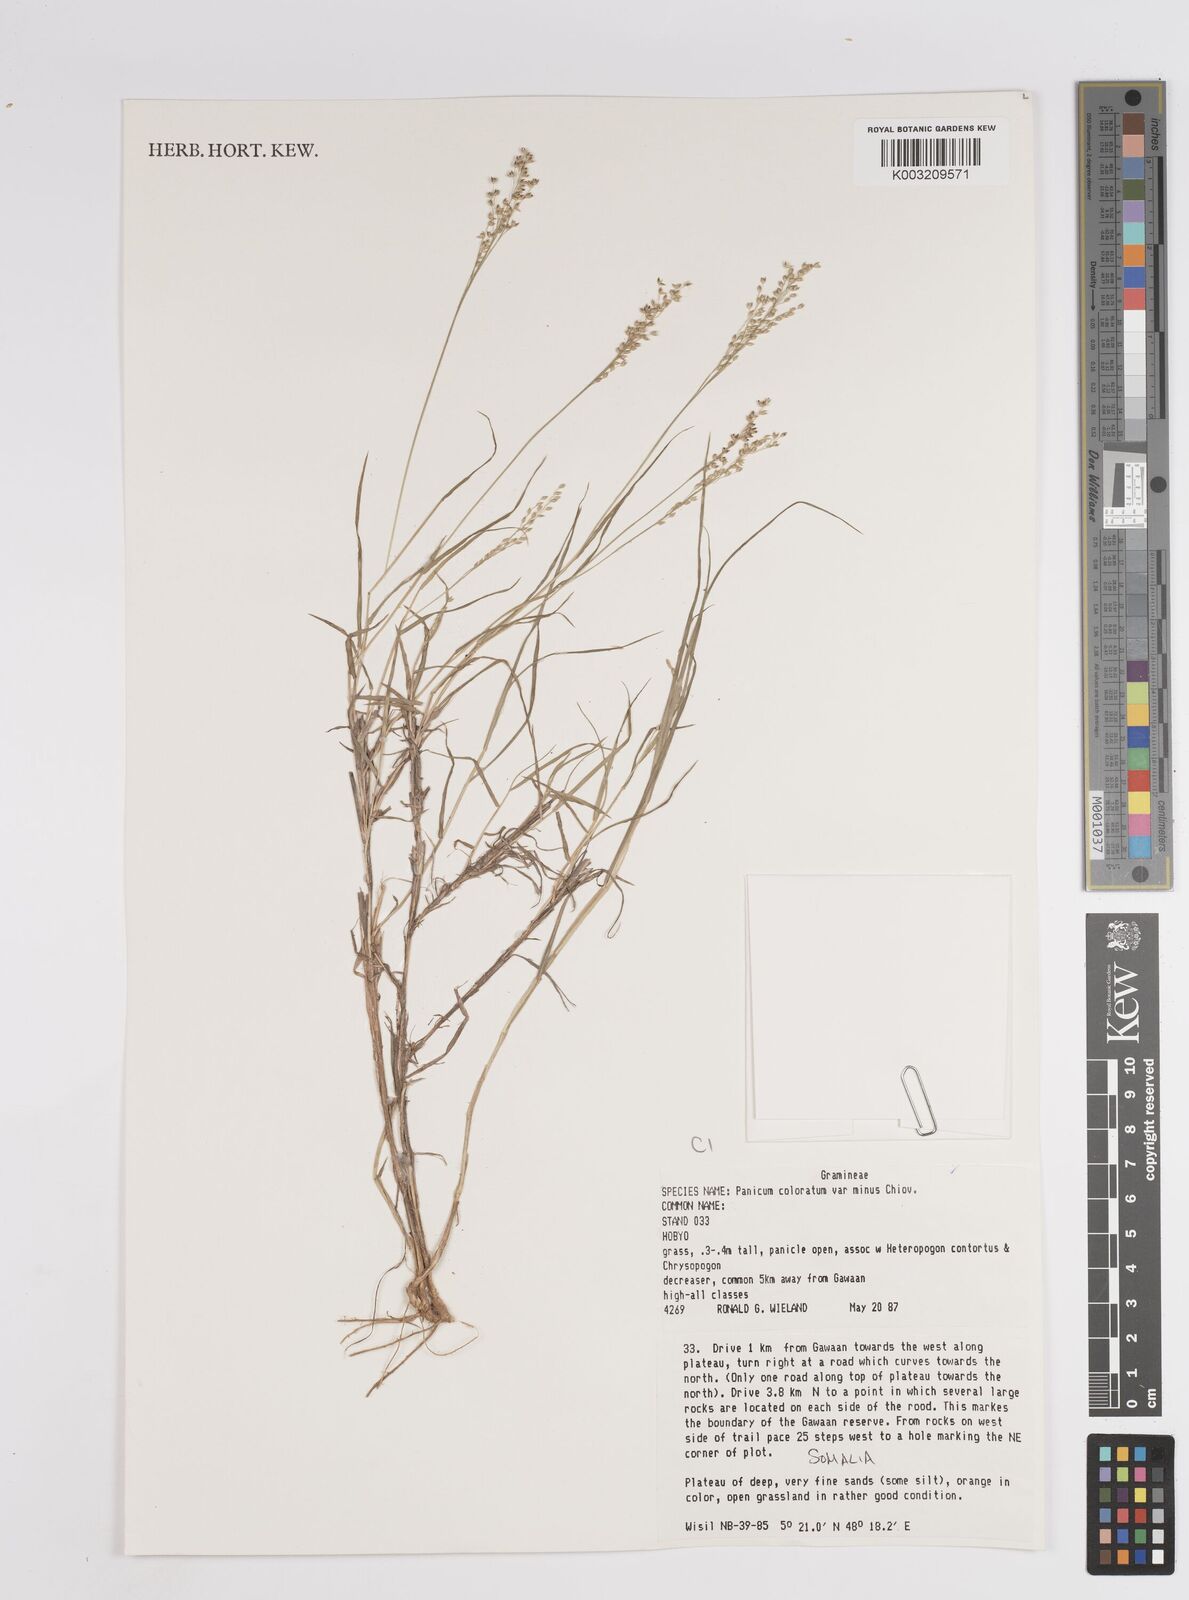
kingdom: Plantae
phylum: Tracheophyta
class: Liliopsida
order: Poales
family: Poaceae
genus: Panicum
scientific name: Panicum coloratum
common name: Kleingrass
